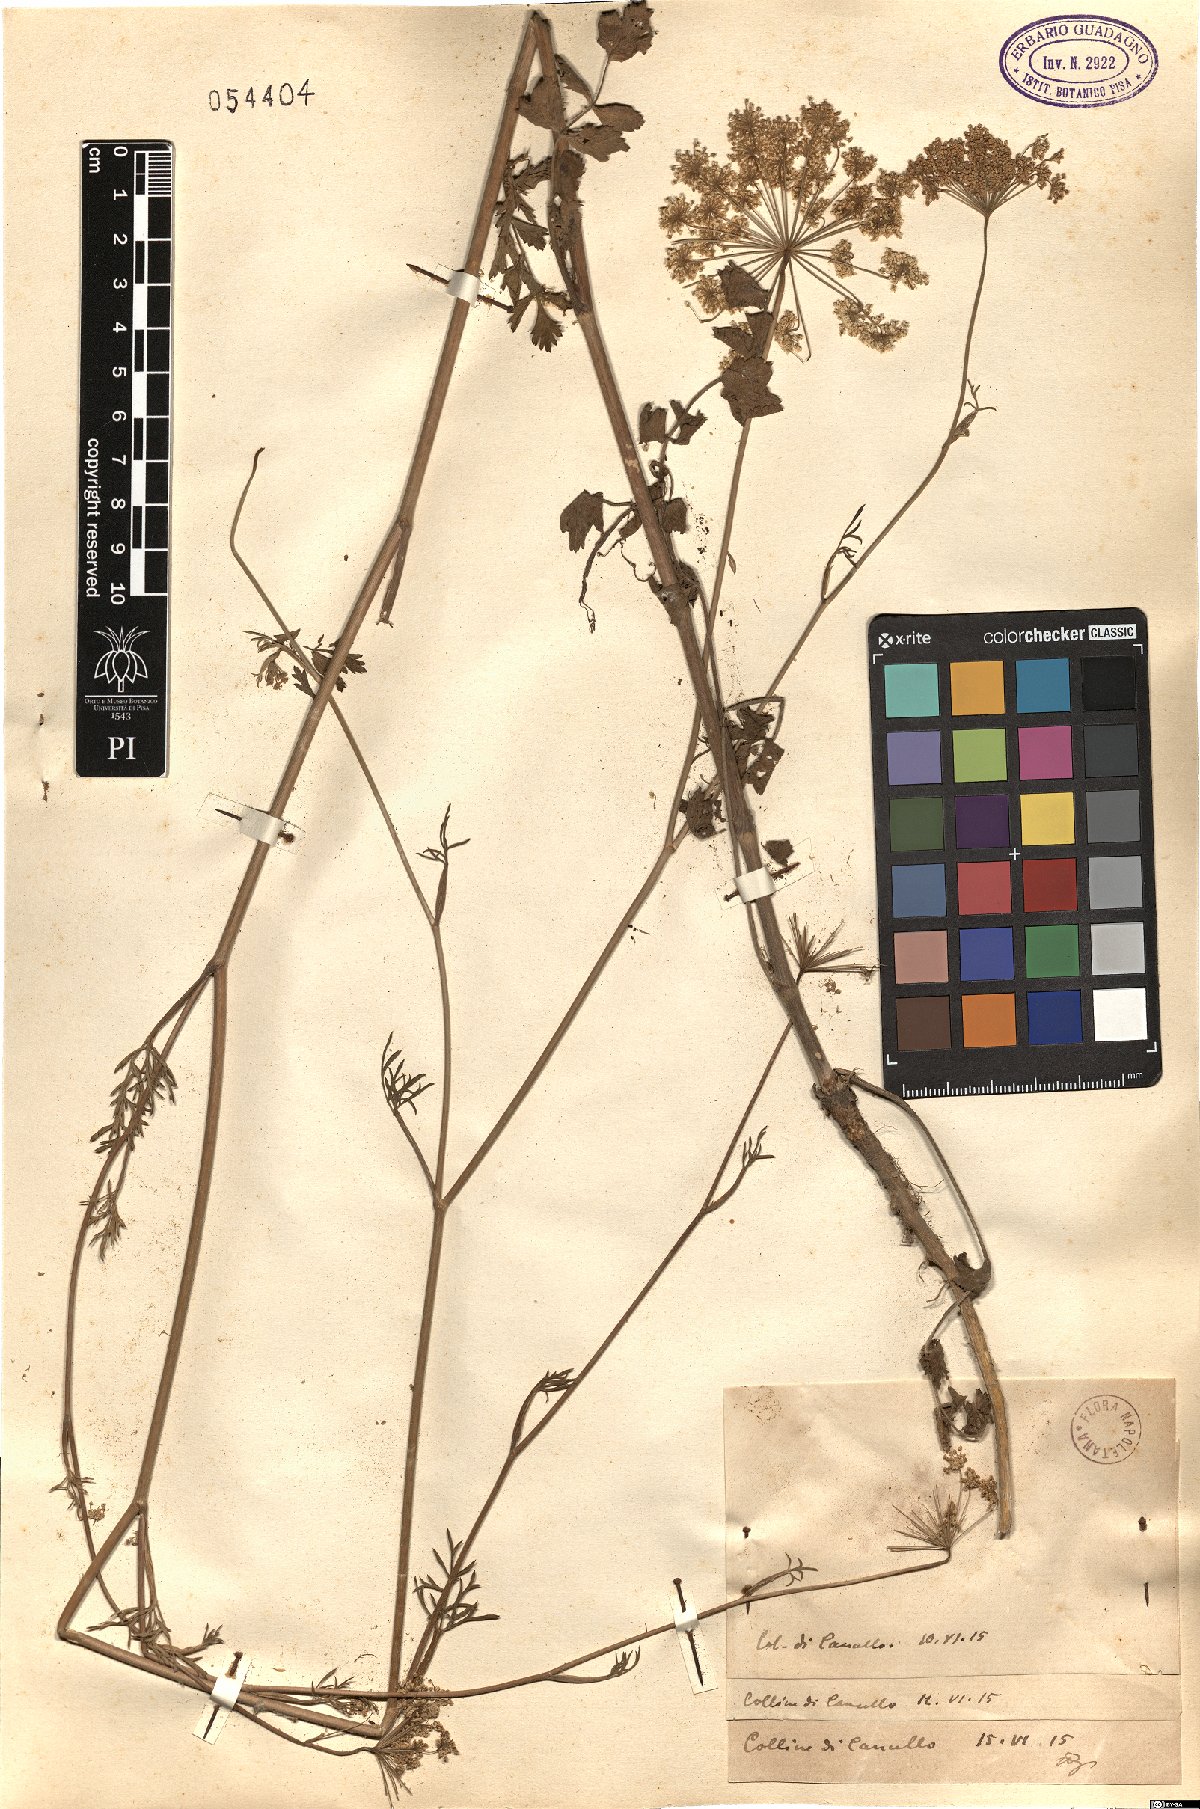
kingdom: Plantae
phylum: Tracheophyta
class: Magnoliopsida
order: Apiales
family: Apiaceae
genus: Daucus
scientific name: Daucus
